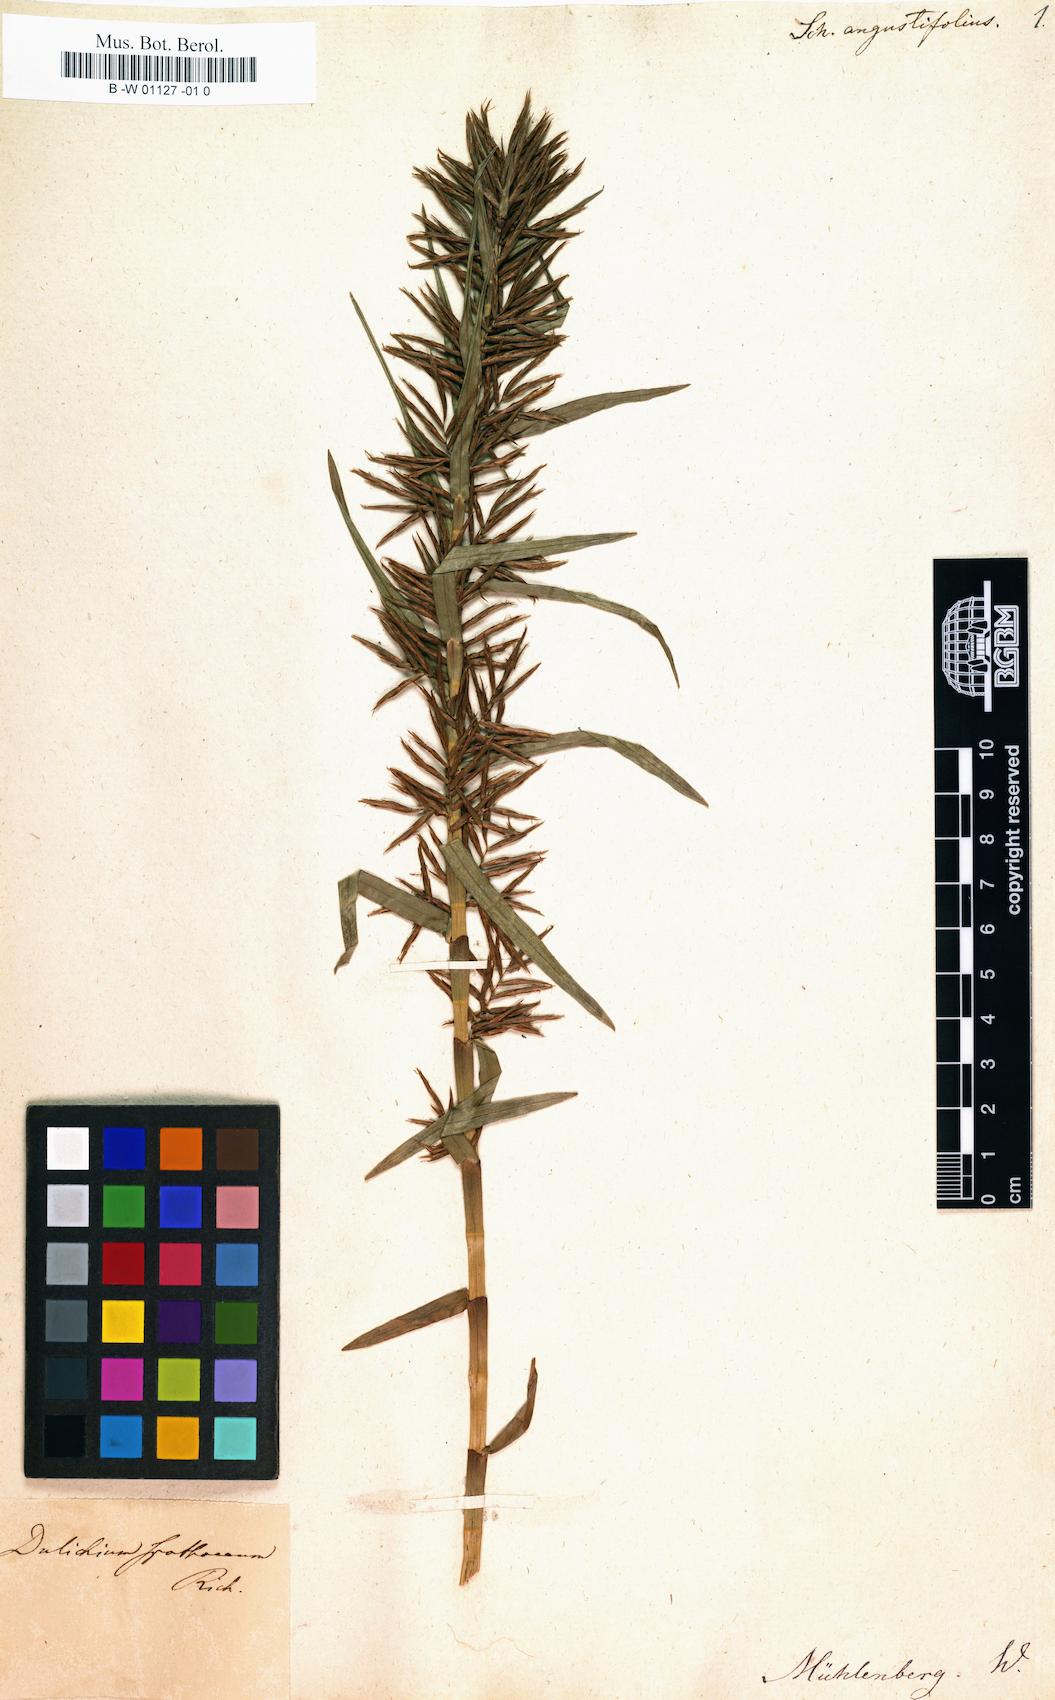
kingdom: Plantae
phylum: Tracheophyta
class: Liliopsida
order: Poales
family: Cyperaceae
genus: Dulichium
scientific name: Dulichium arundinaceum
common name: Three-way sedge
